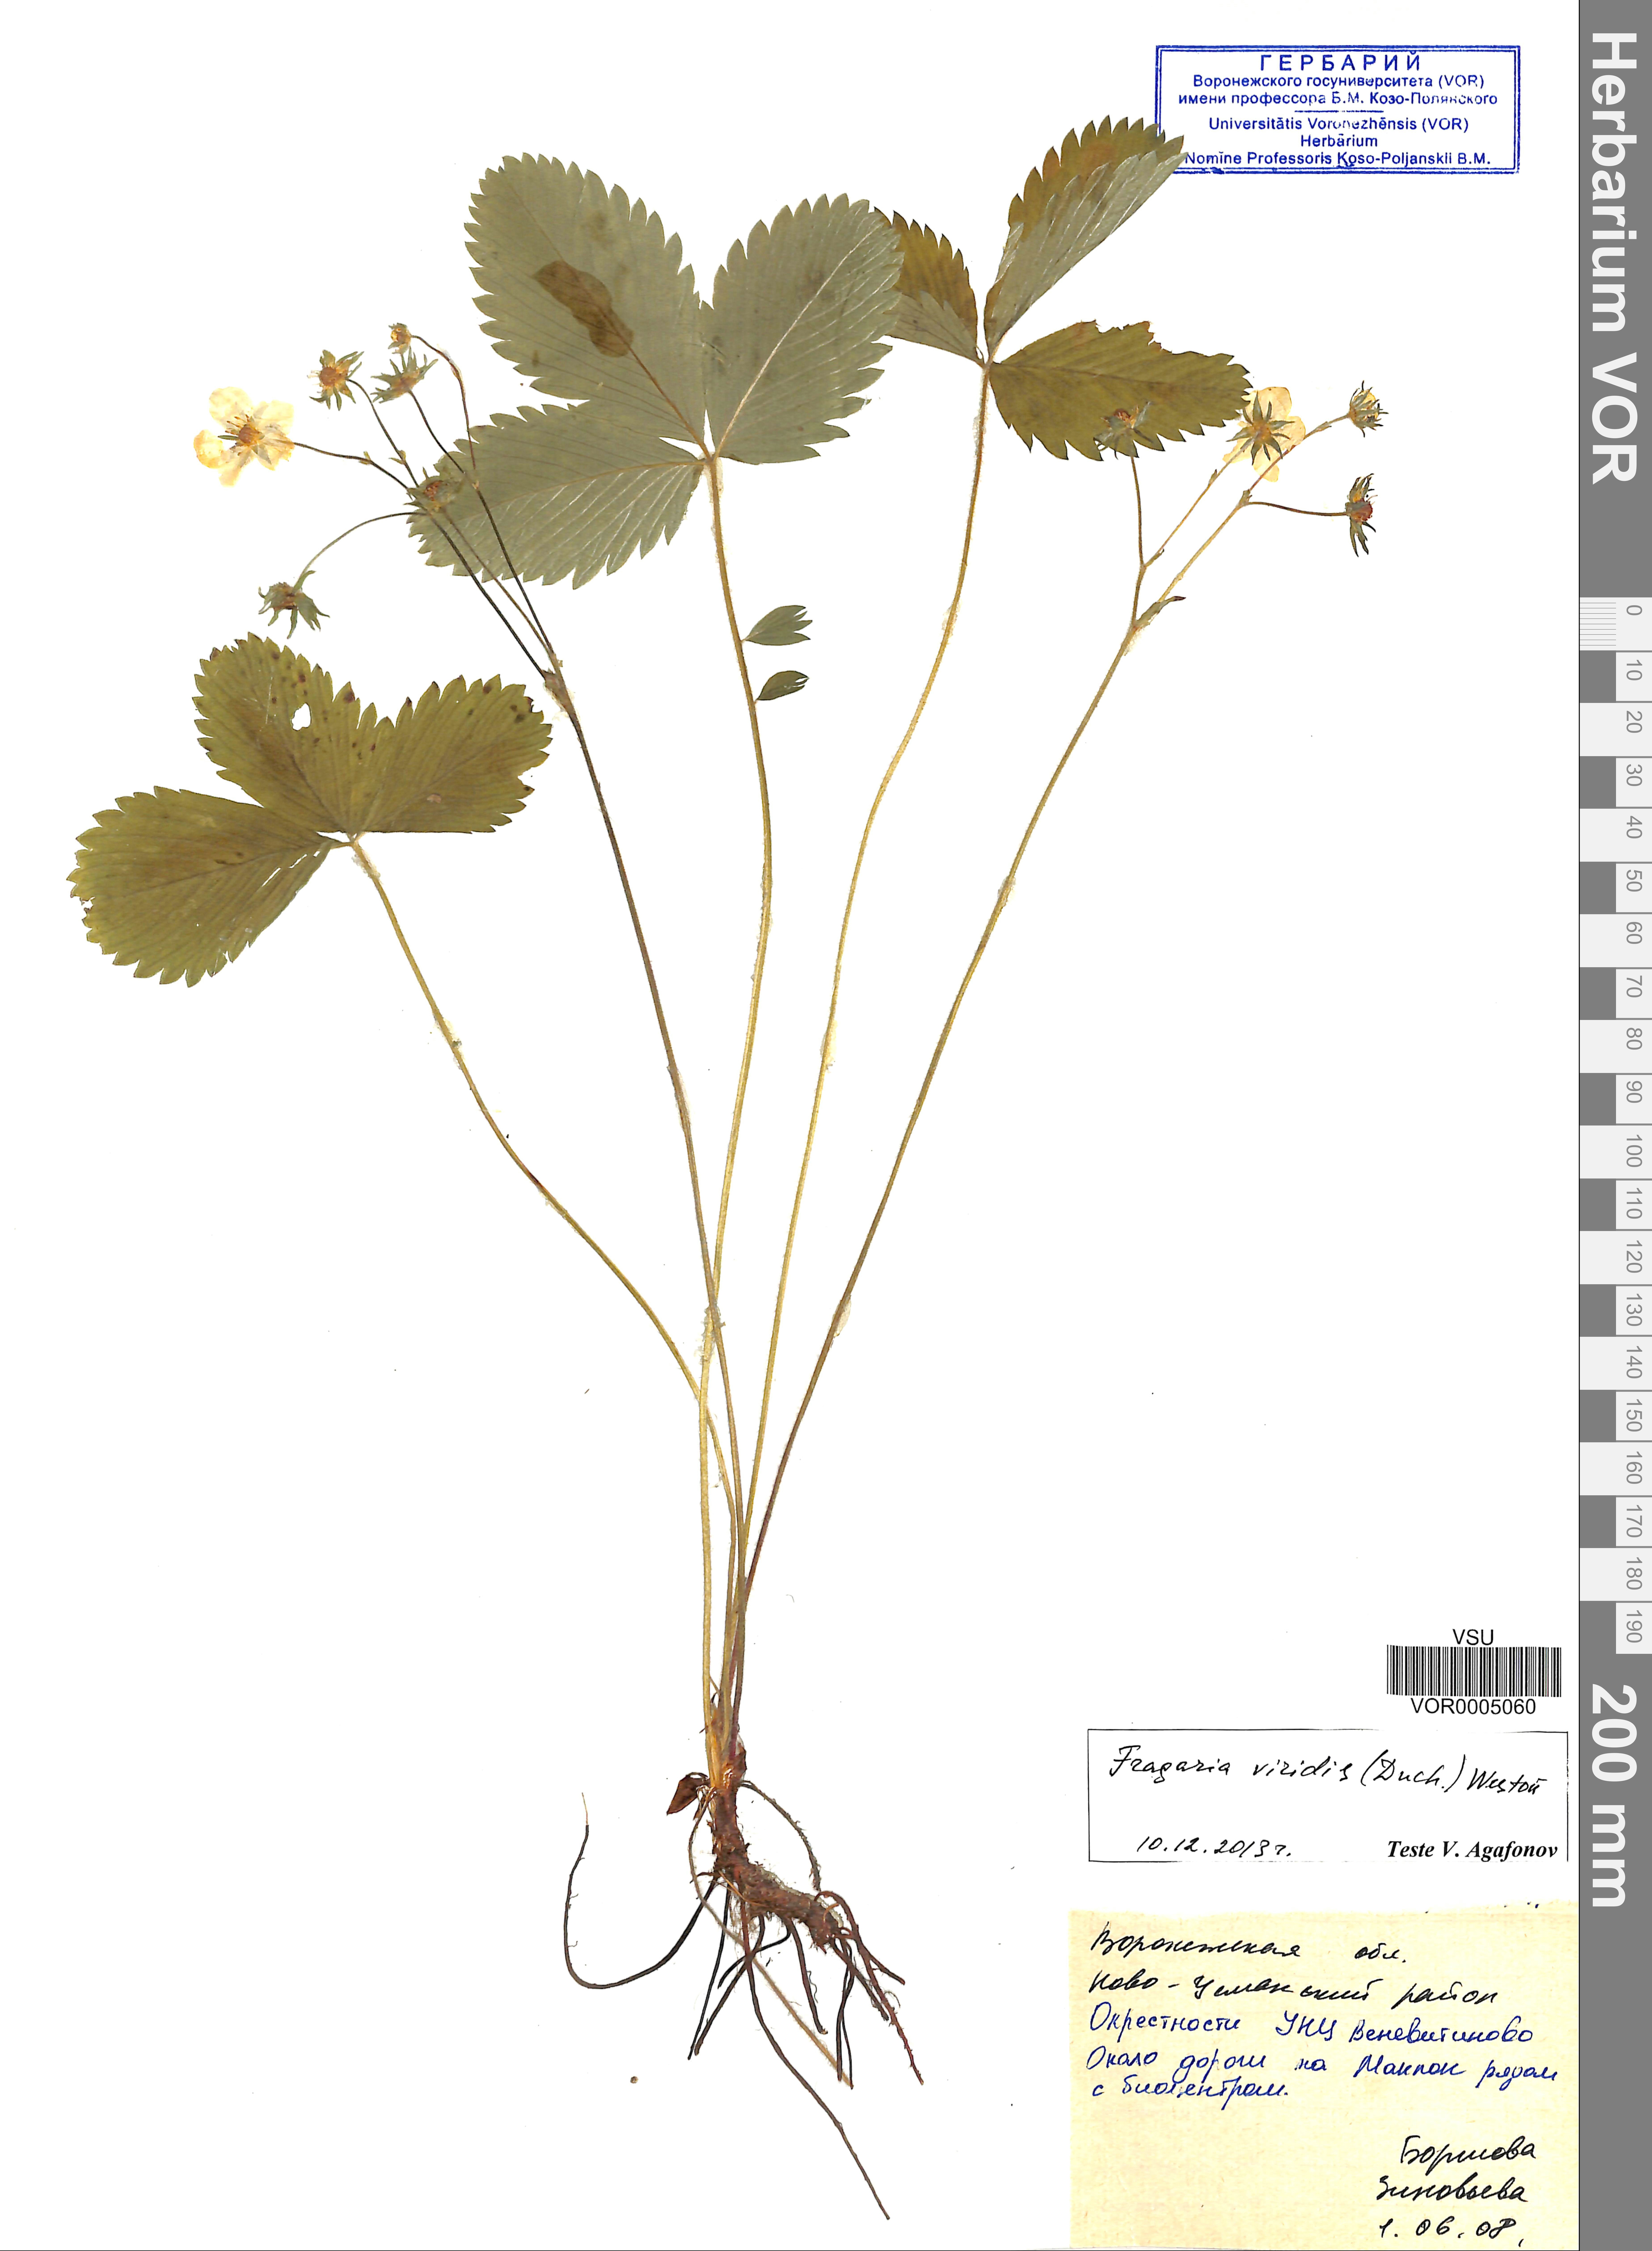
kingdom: Plantae
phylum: Tracheophyta
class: Magnoliopsida
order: Rosales
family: Rosaceae
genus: Fragaria
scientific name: Fragaria viridis
